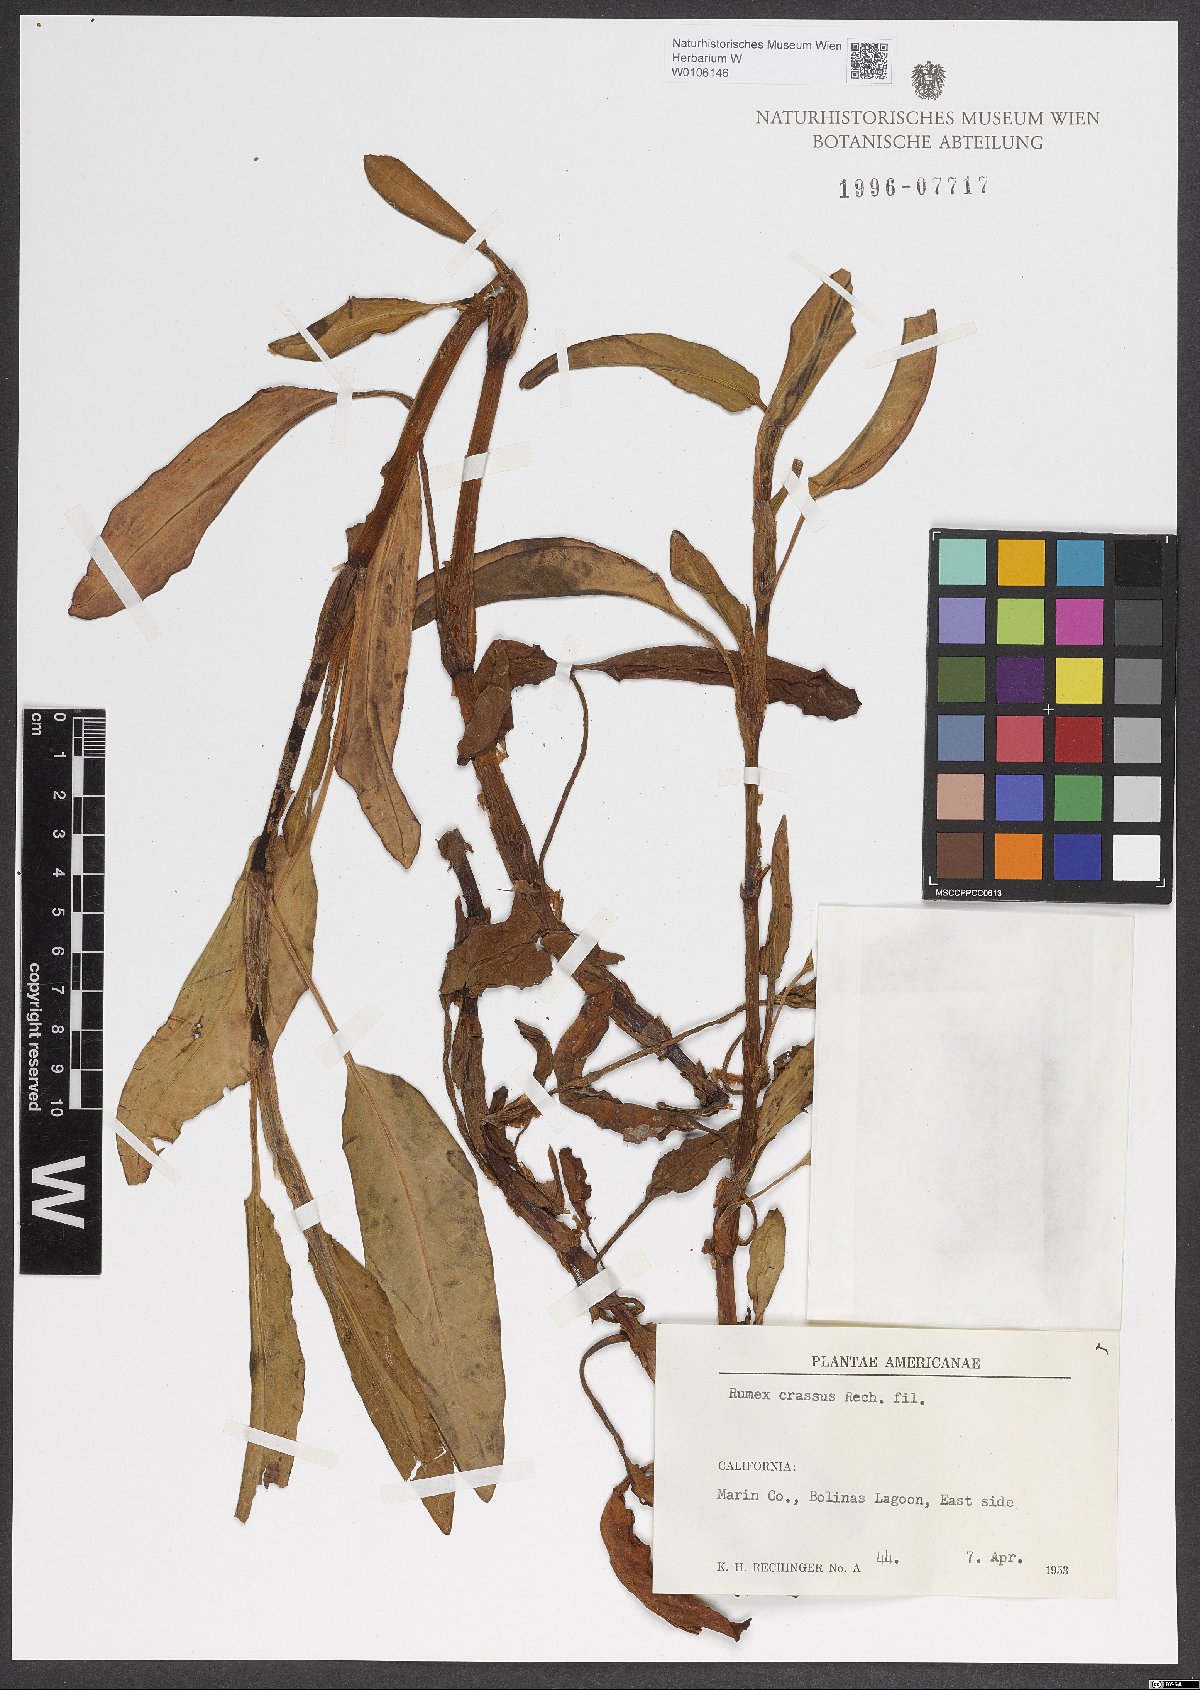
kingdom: Plantae
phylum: Tracheophyta
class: Magnoliopsida
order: Caryophyllales
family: Polygonaceae
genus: Rumex
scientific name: Rumex crassus
